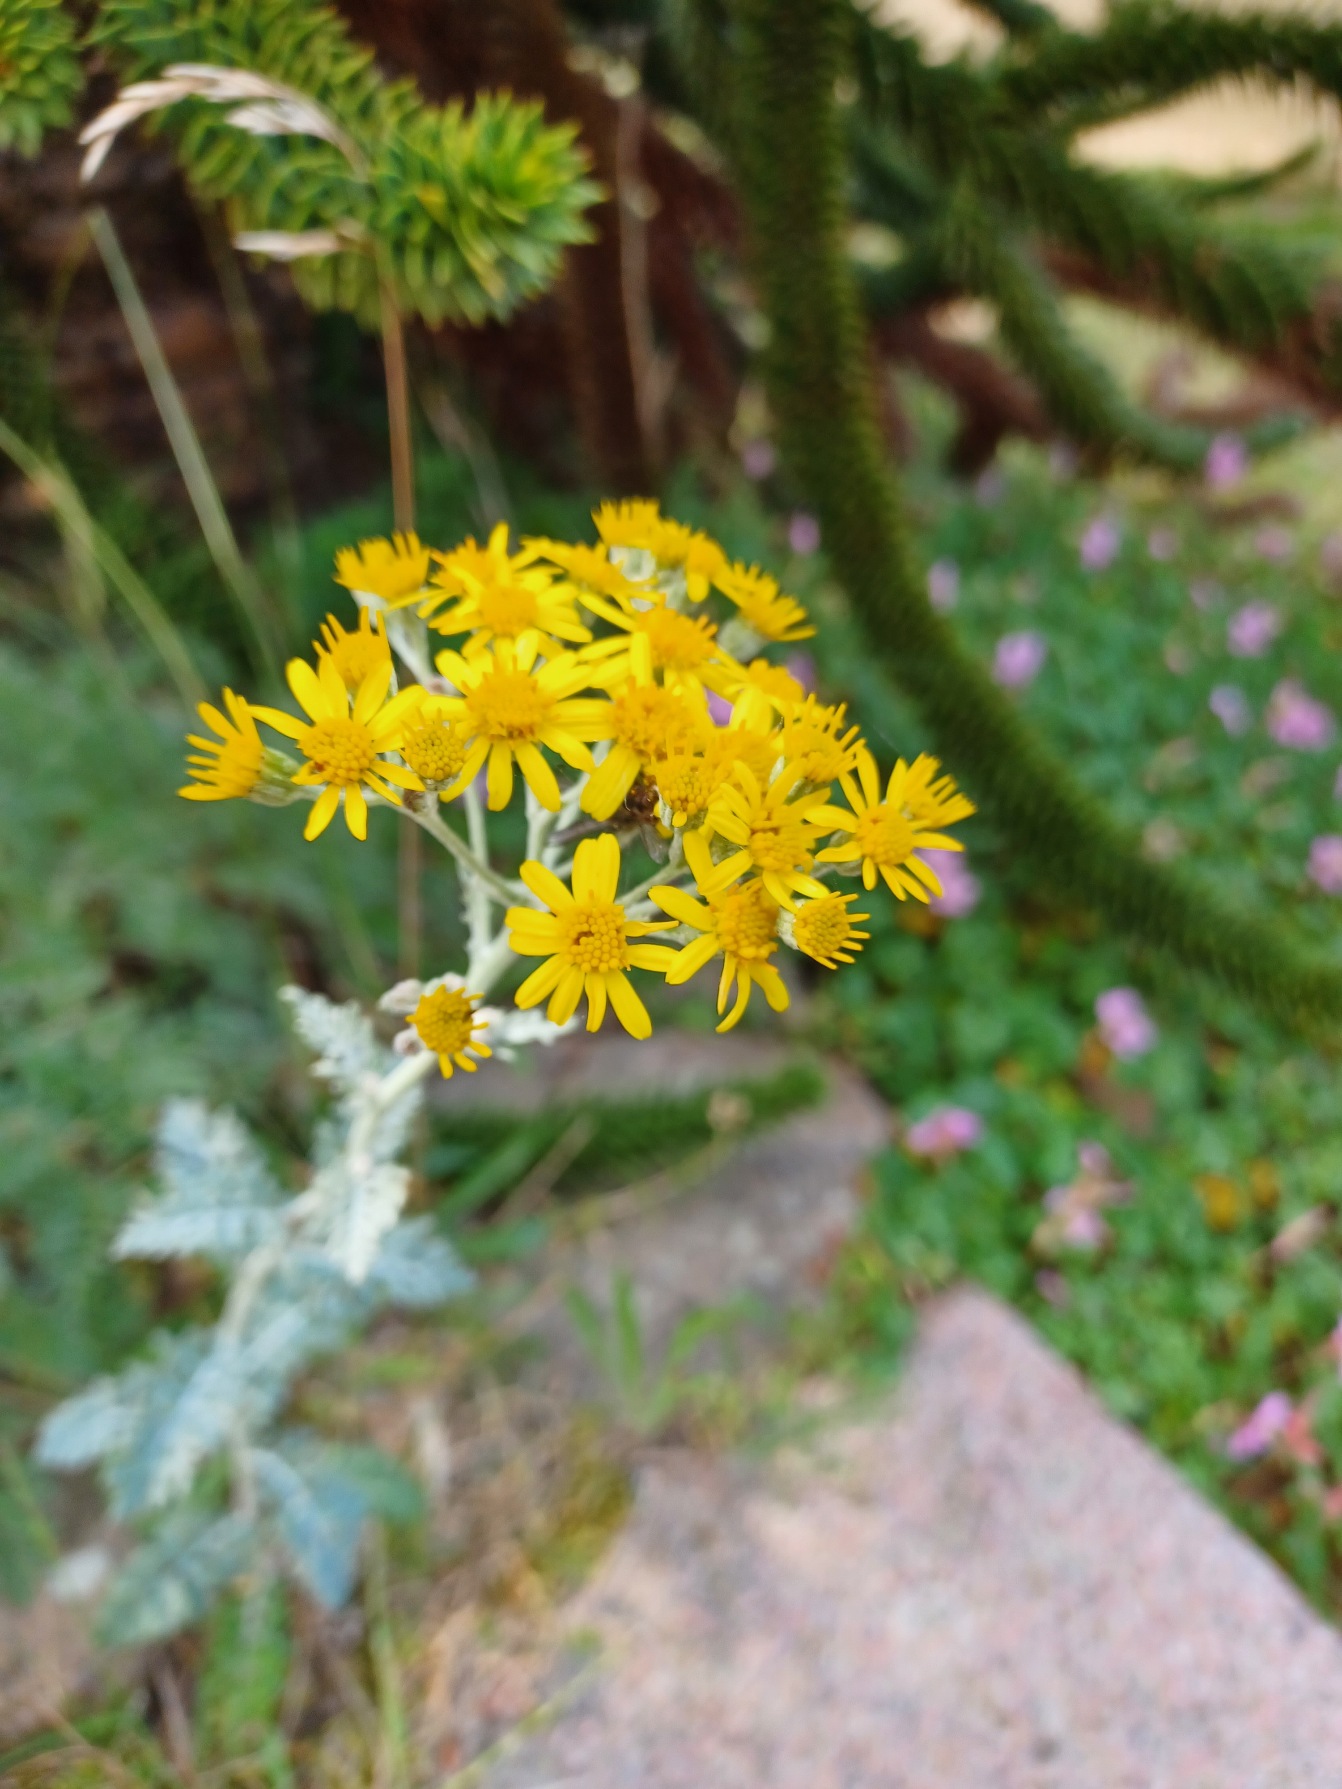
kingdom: Plantae
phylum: Tracheophyta
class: Magnoliopsida
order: Asterales
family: Asteraceae
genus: Jacobaea
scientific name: Jacobaea vulgaris
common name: Eng-brandbæger
